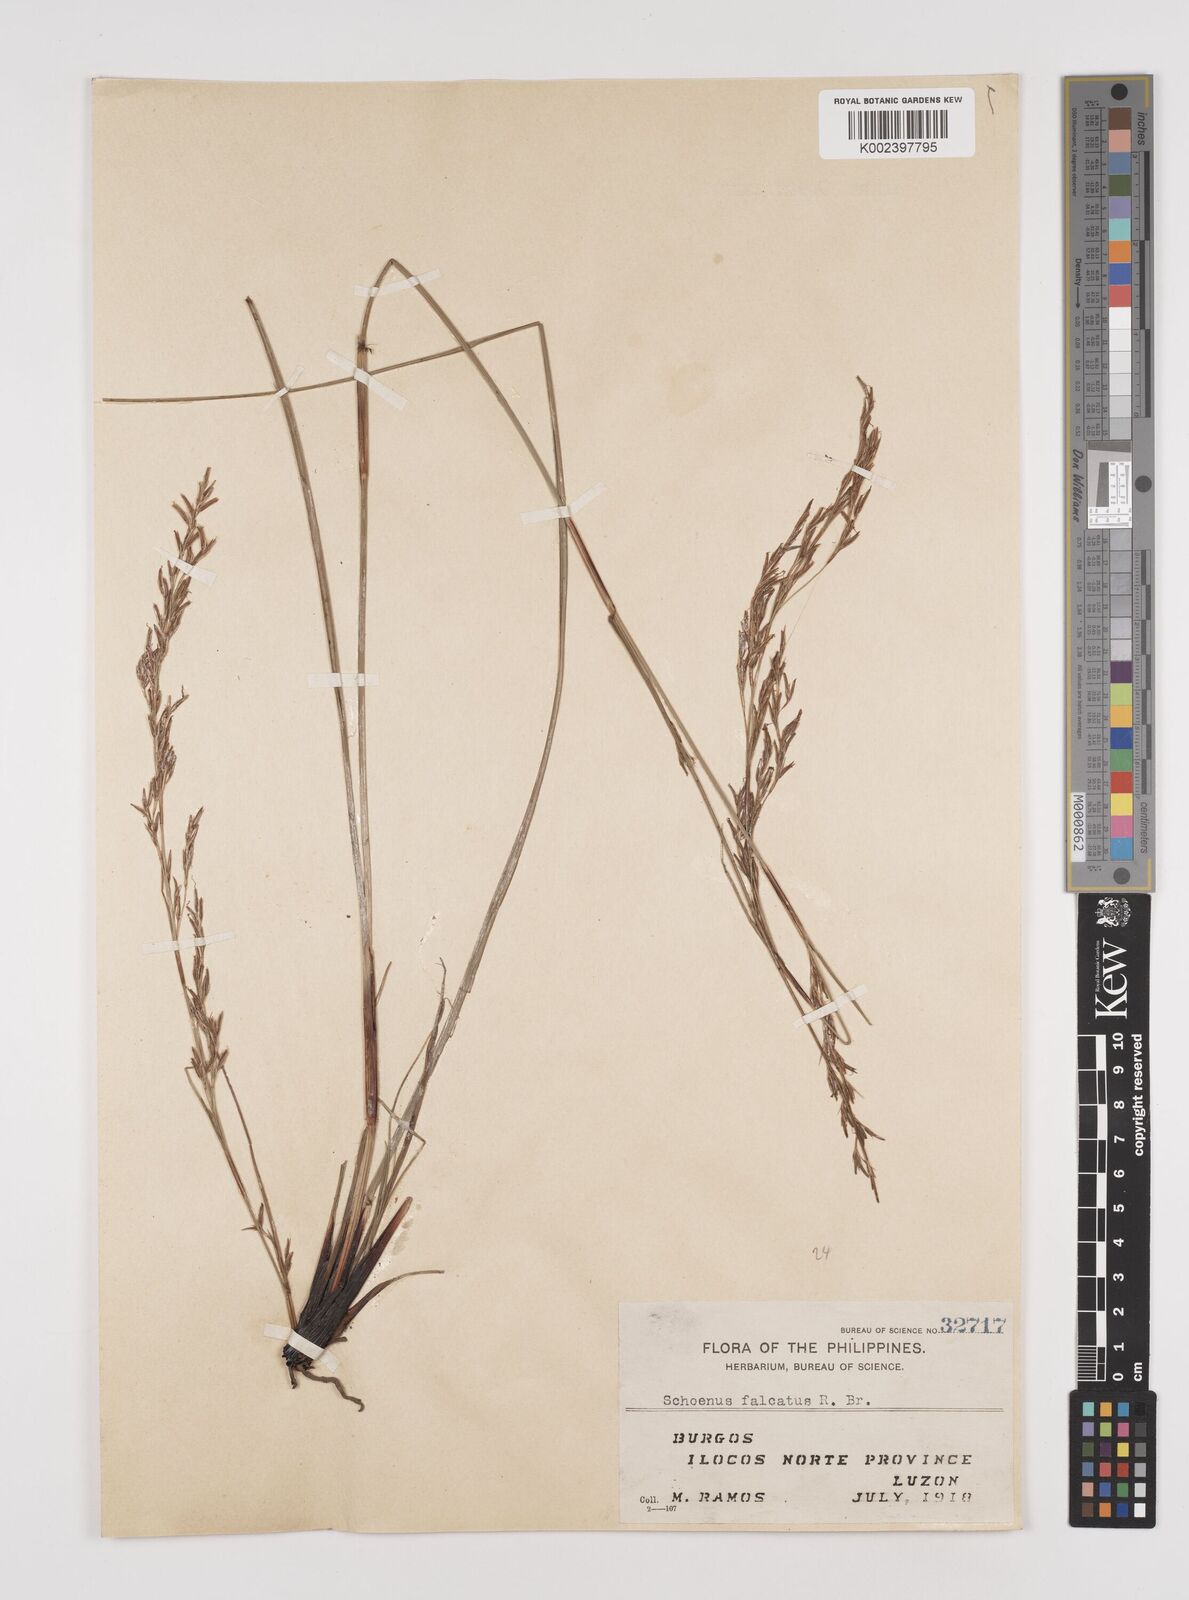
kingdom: Plantae
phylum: Tracheophyta
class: Liliopsida
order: Poales
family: Cyperaceae
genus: Schoenus
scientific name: Schoenus falcatus
